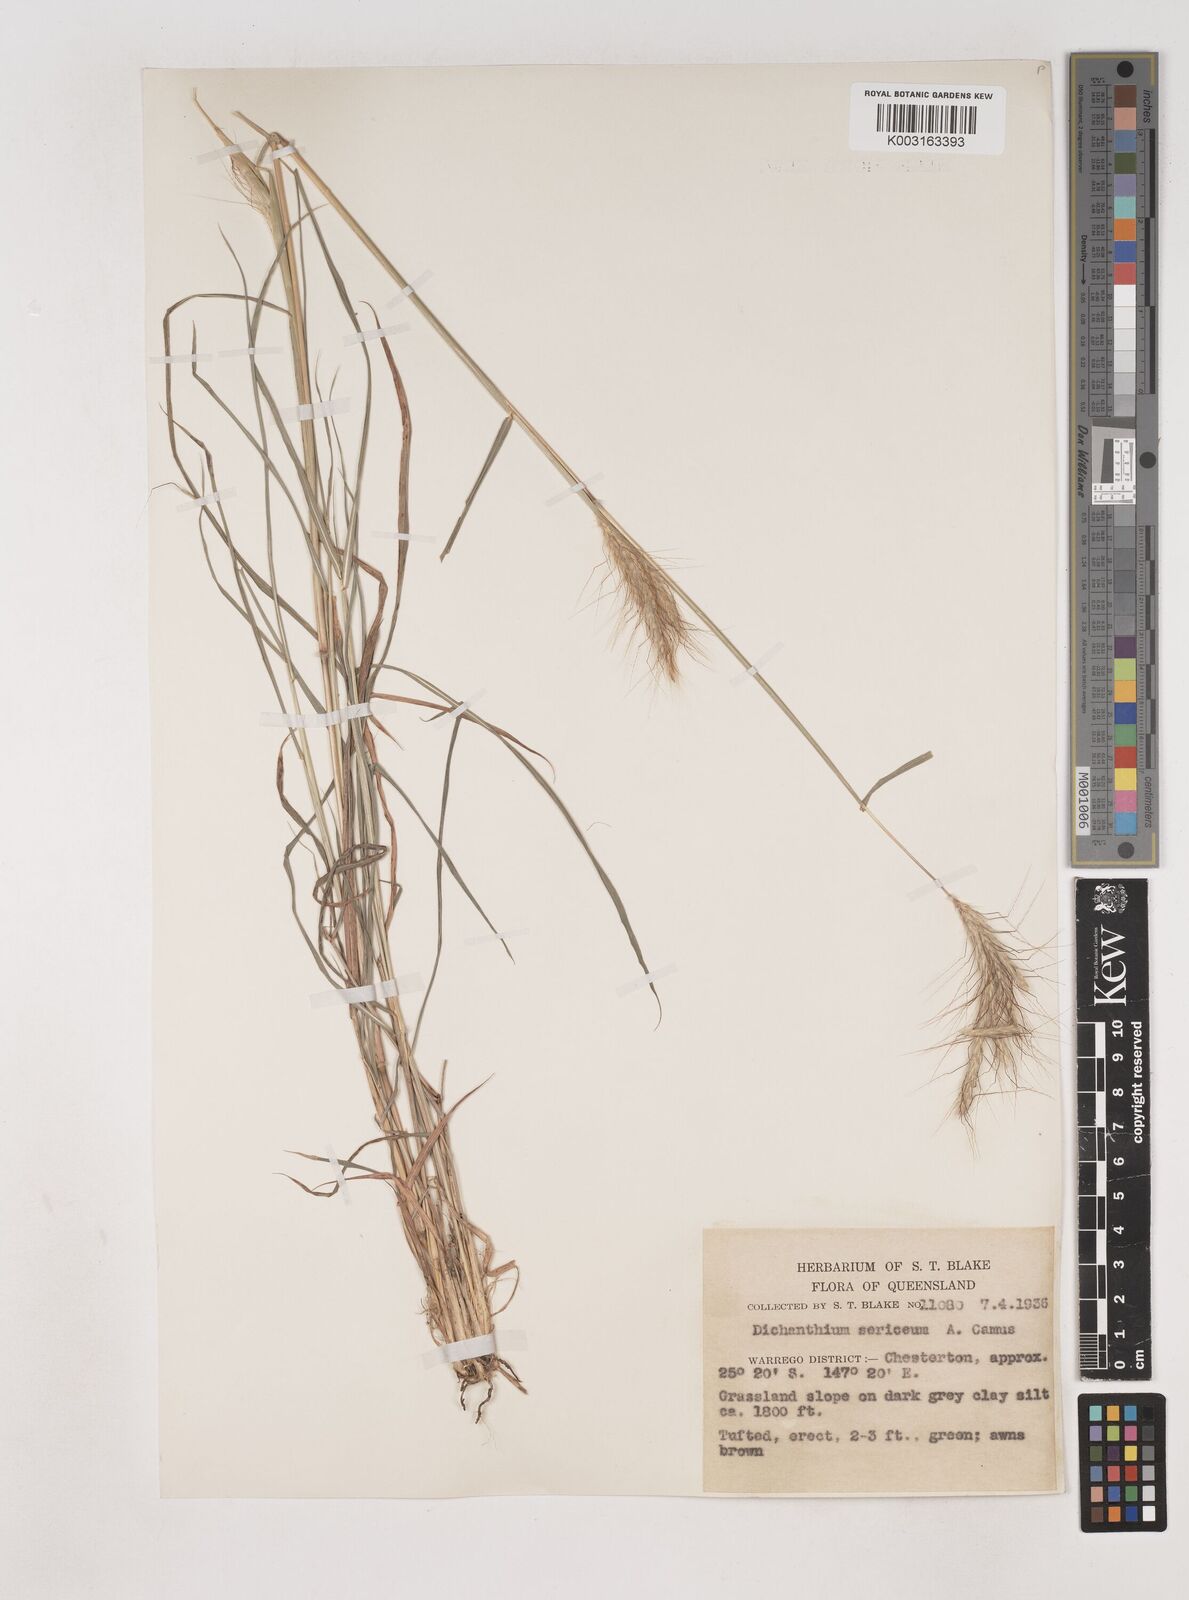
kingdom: Plantae
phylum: Tracheophyta
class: Liliopsida
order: Poales
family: Poaceae
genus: Dichanthium
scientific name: Dichanthium sericeum
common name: Silky bluestem
